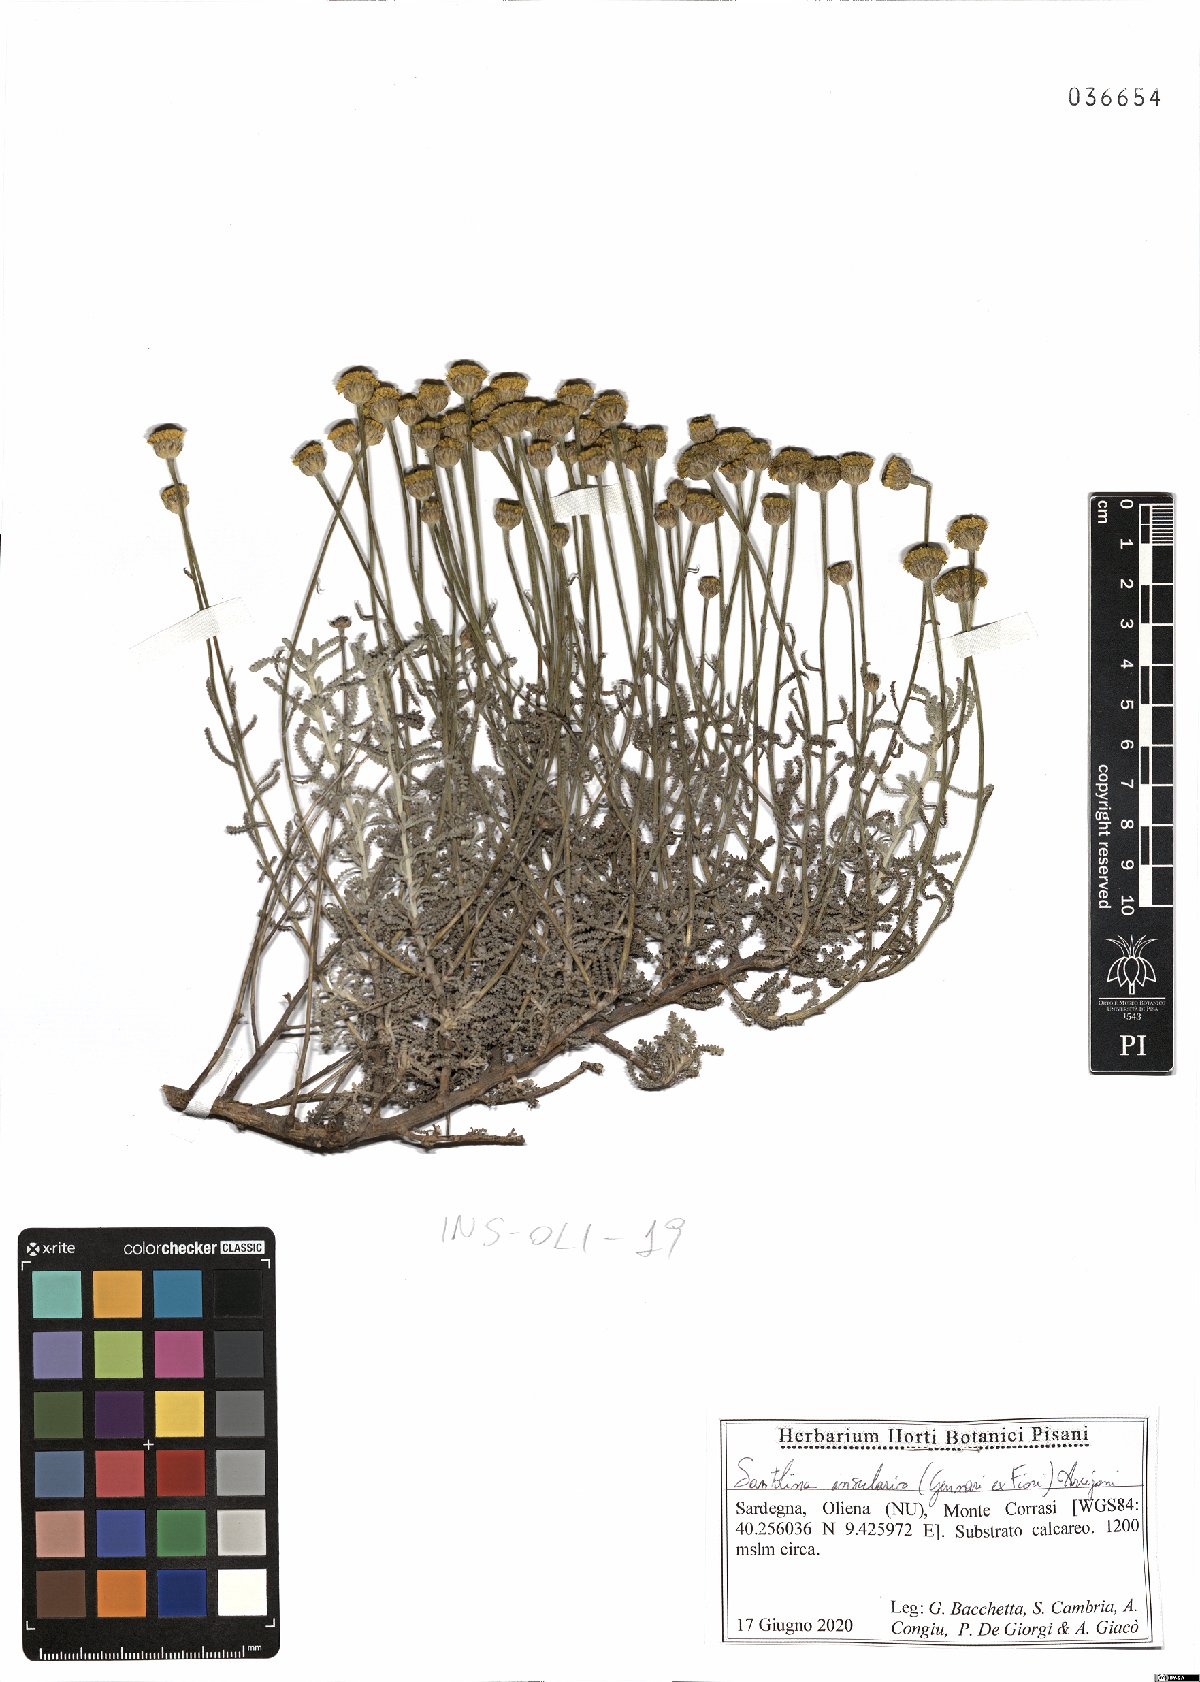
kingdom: Plantae
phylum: Tracheophyta
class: Magnoliopsida
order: Asterales
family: Asteraceae
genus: Santolina
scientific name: Santolina insularis
